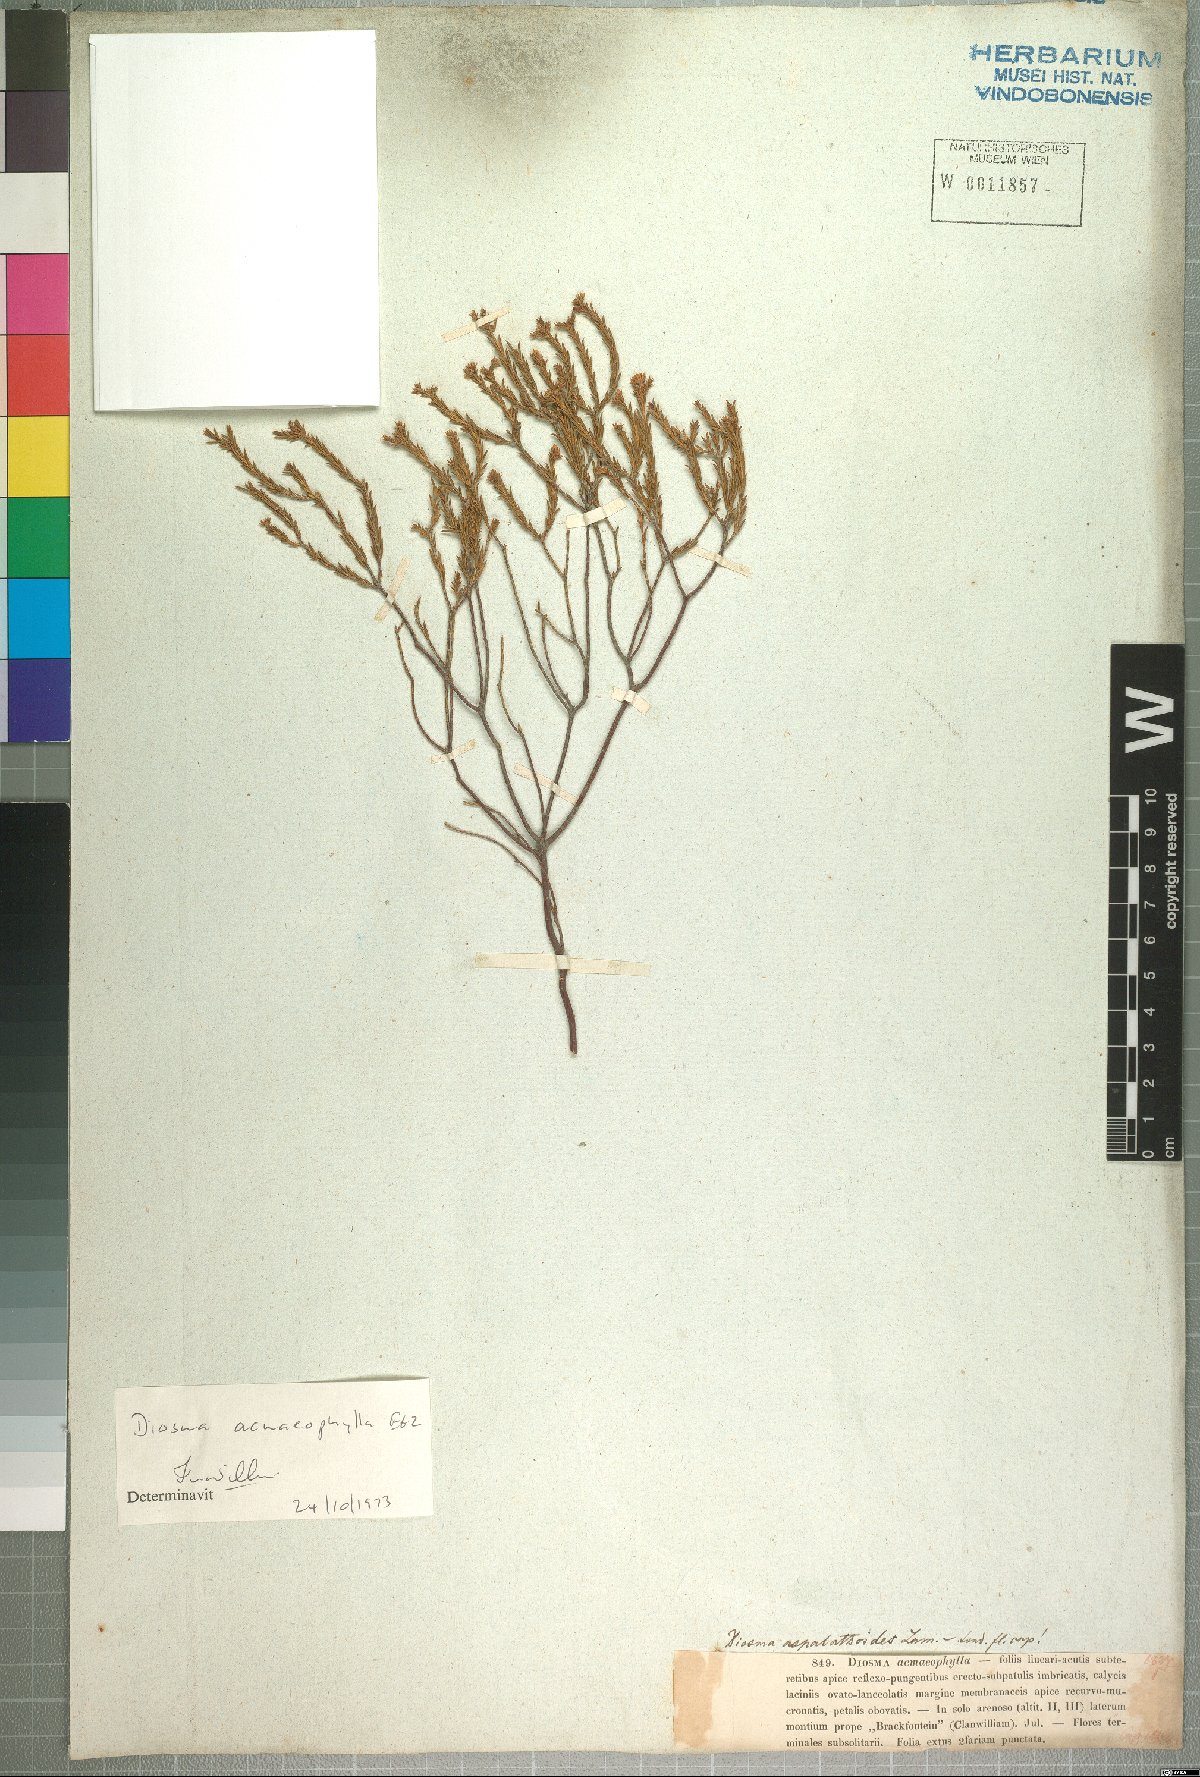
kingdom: Plantae
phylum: Tracheophyta
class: Magnoliopsida
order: Sapindales
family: Rutaceae
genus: Diosma
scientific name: Diosma acmaeophylla
